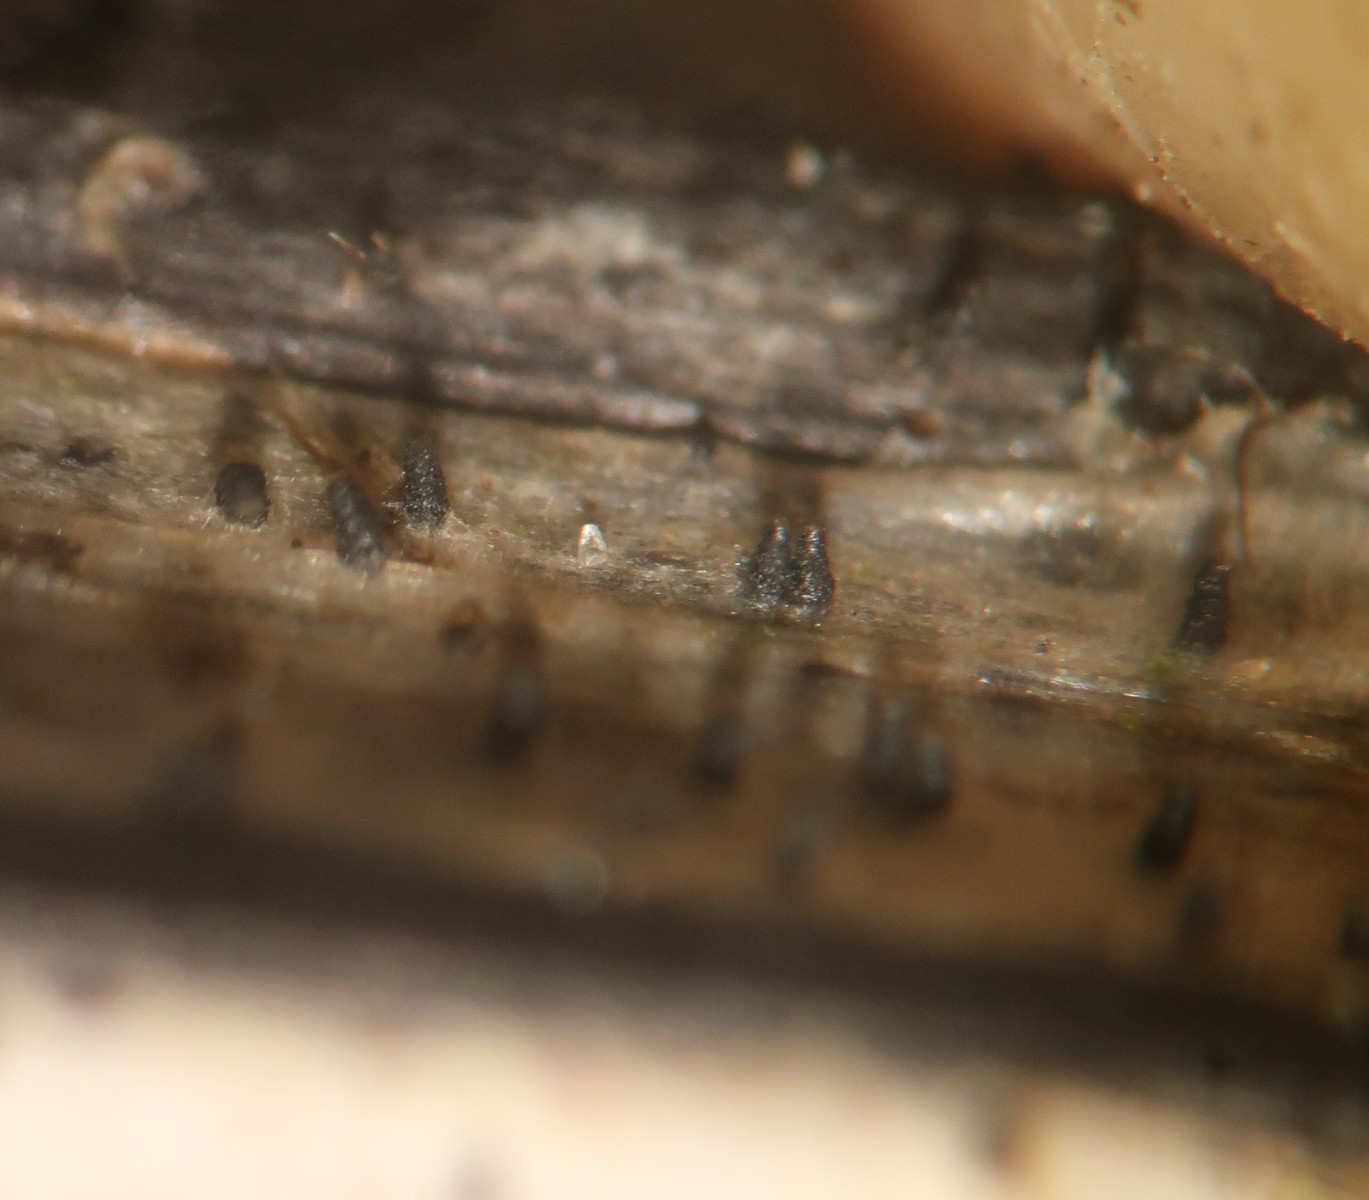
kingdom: Fungi
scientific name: Fungi
